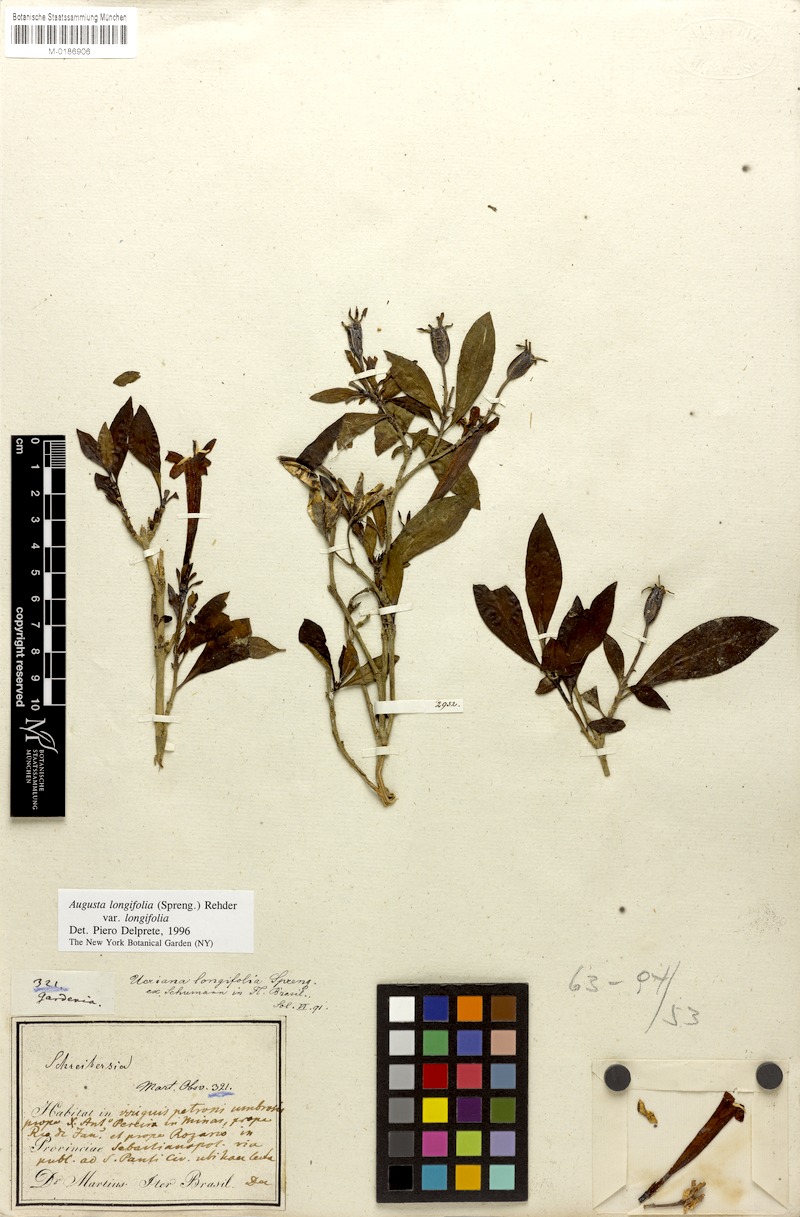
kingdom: Plantae
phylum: Tracheophyta
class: Magnoliopsida
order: Gentianales
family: Rubiaceae
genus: Augusta
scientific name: Augusta longifolia
